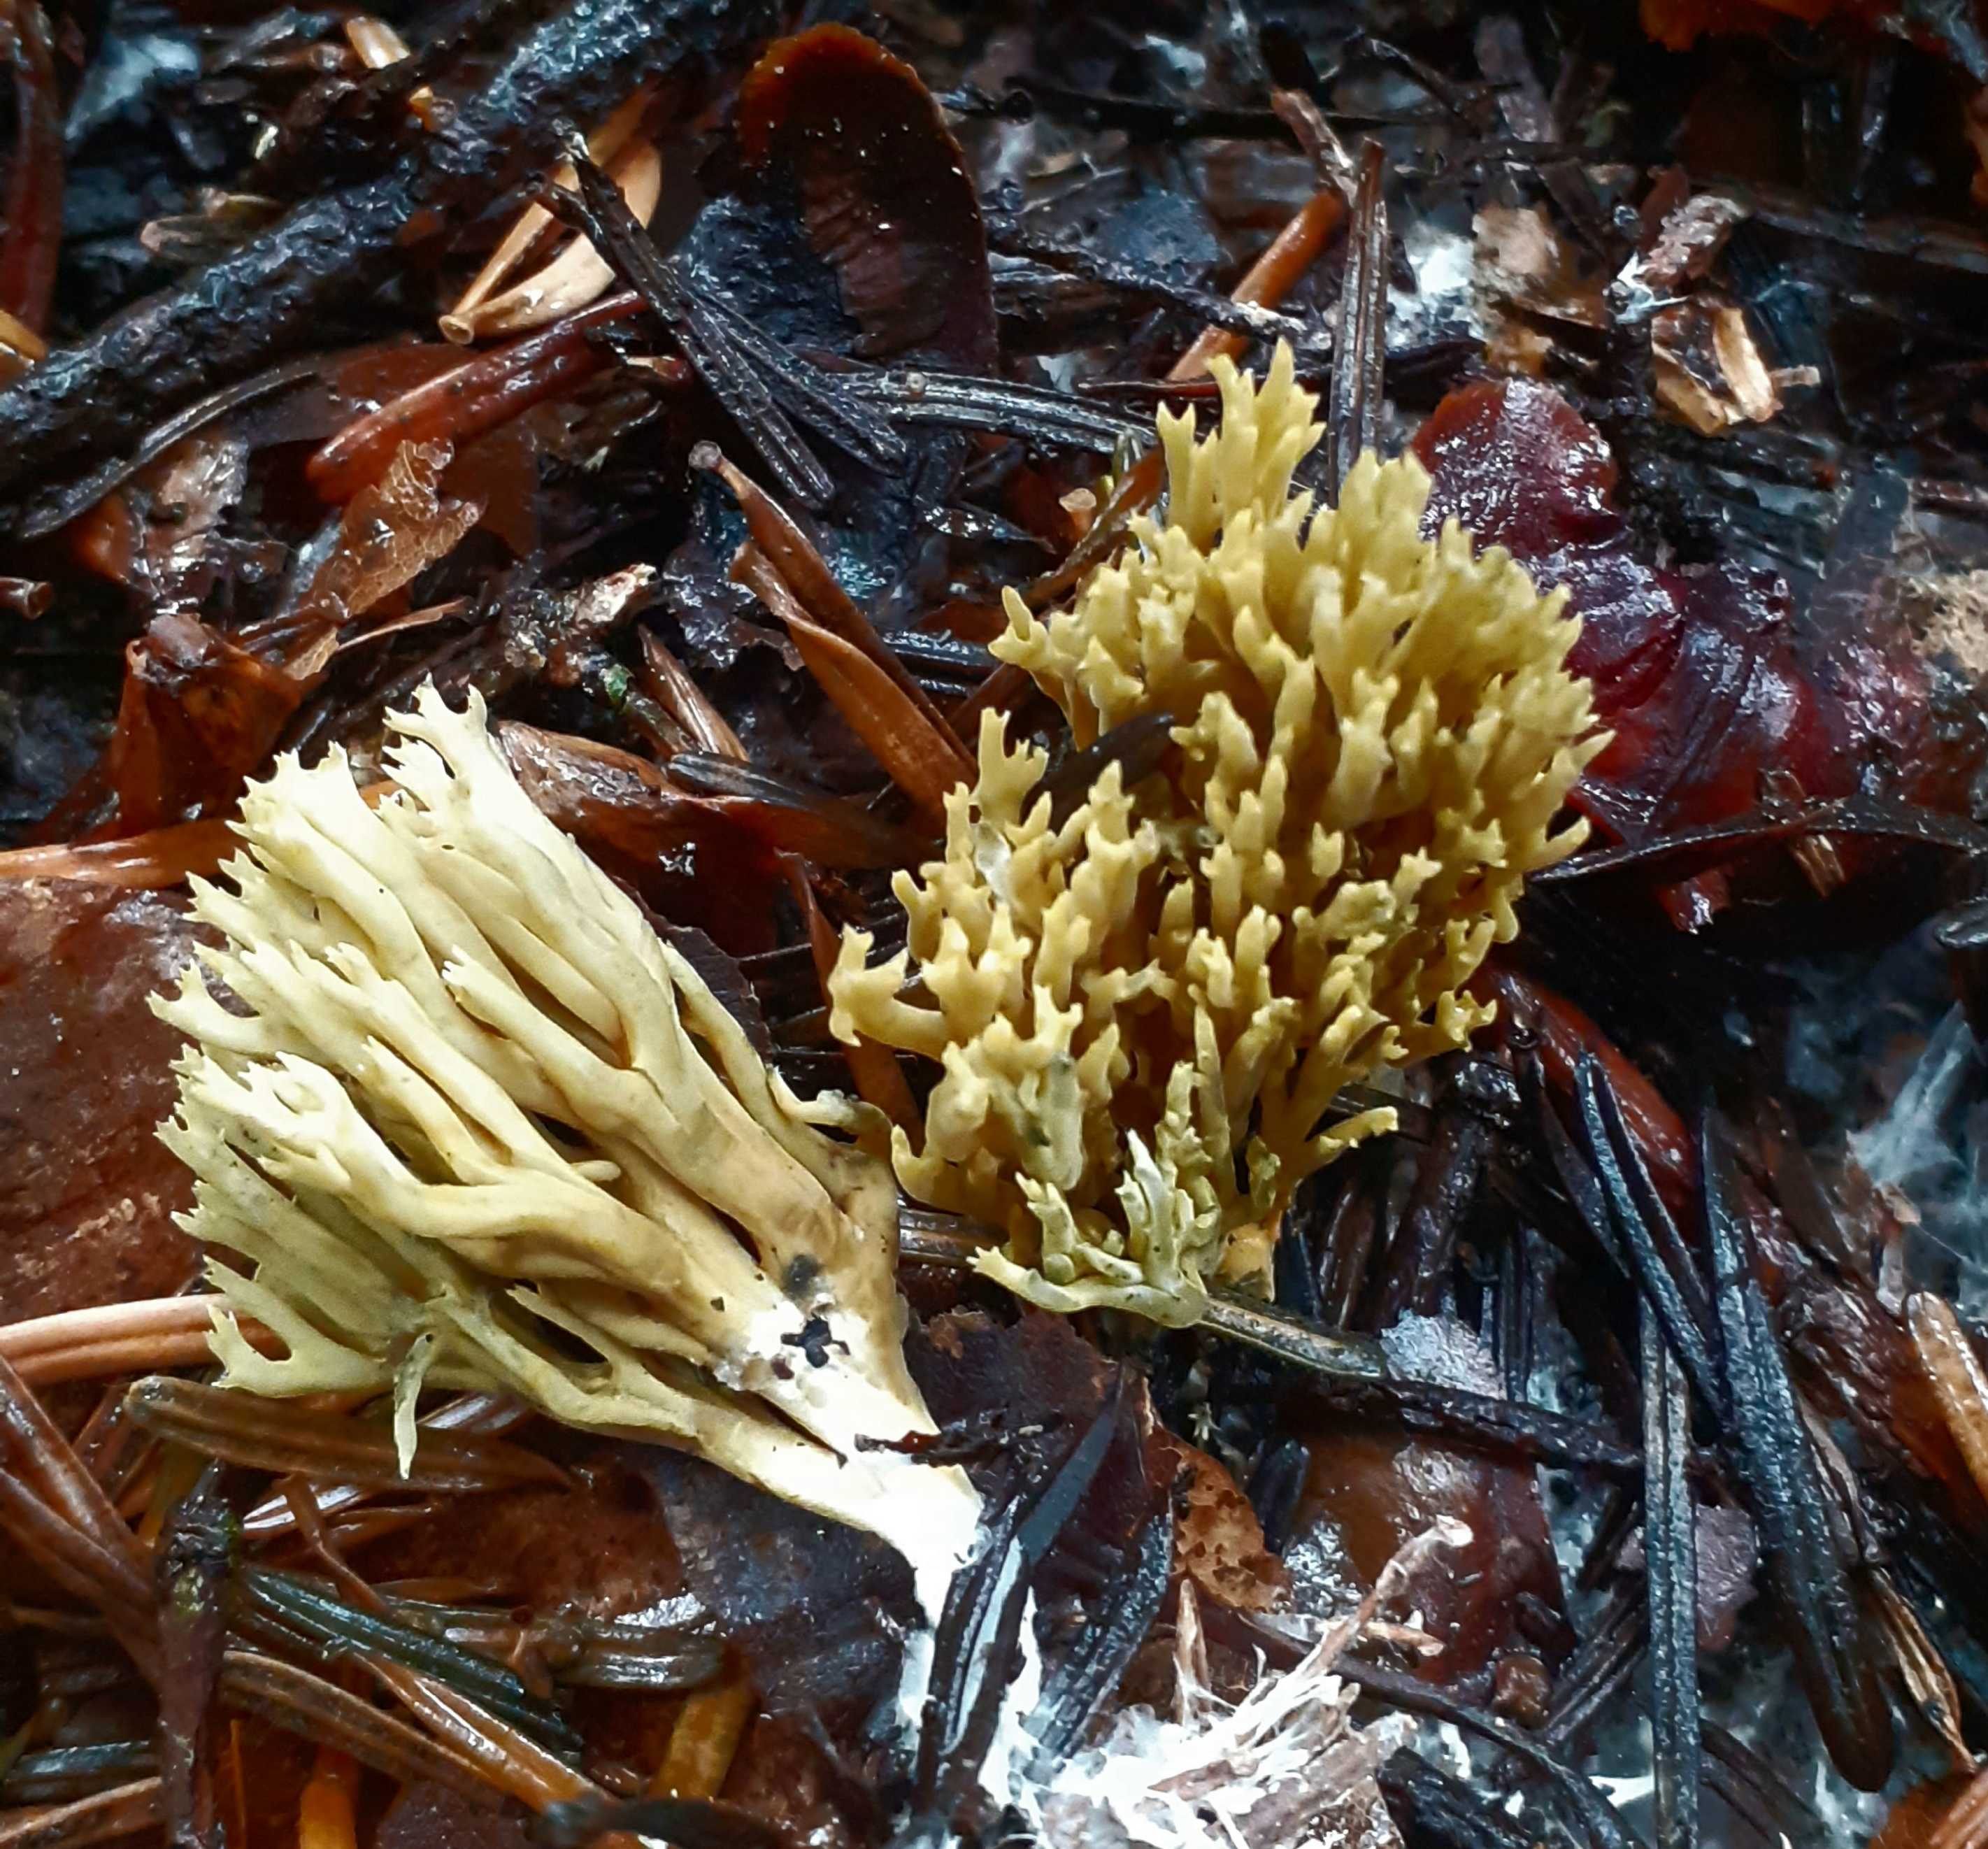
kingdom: Fungi
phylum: Basidiomycota
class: Agaricomycetes
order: Gomphales
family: Gomphaceae
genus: Phaeoclavulina
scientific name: Phaeoclavulina abietina
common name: gulgrøn koralsvamp
